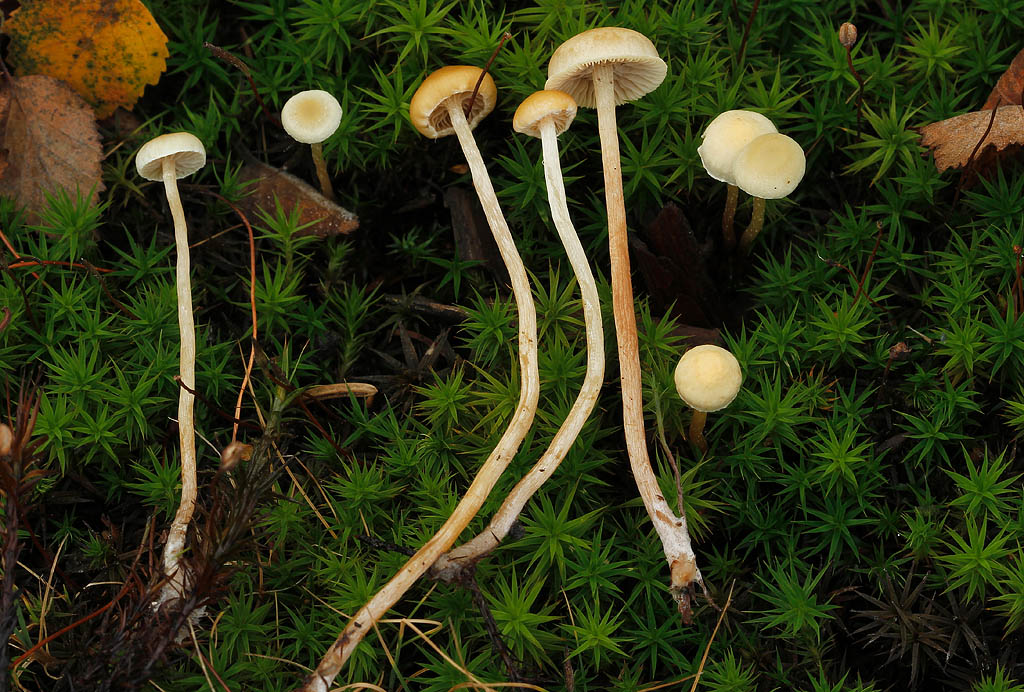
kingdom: Fungi
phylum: Basidiomycota
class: Agaricomycetes
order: Agaricales
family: Strophariaceae
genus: Hypholoma
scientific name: Hypholoma elongatum
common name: slank svovlhat
